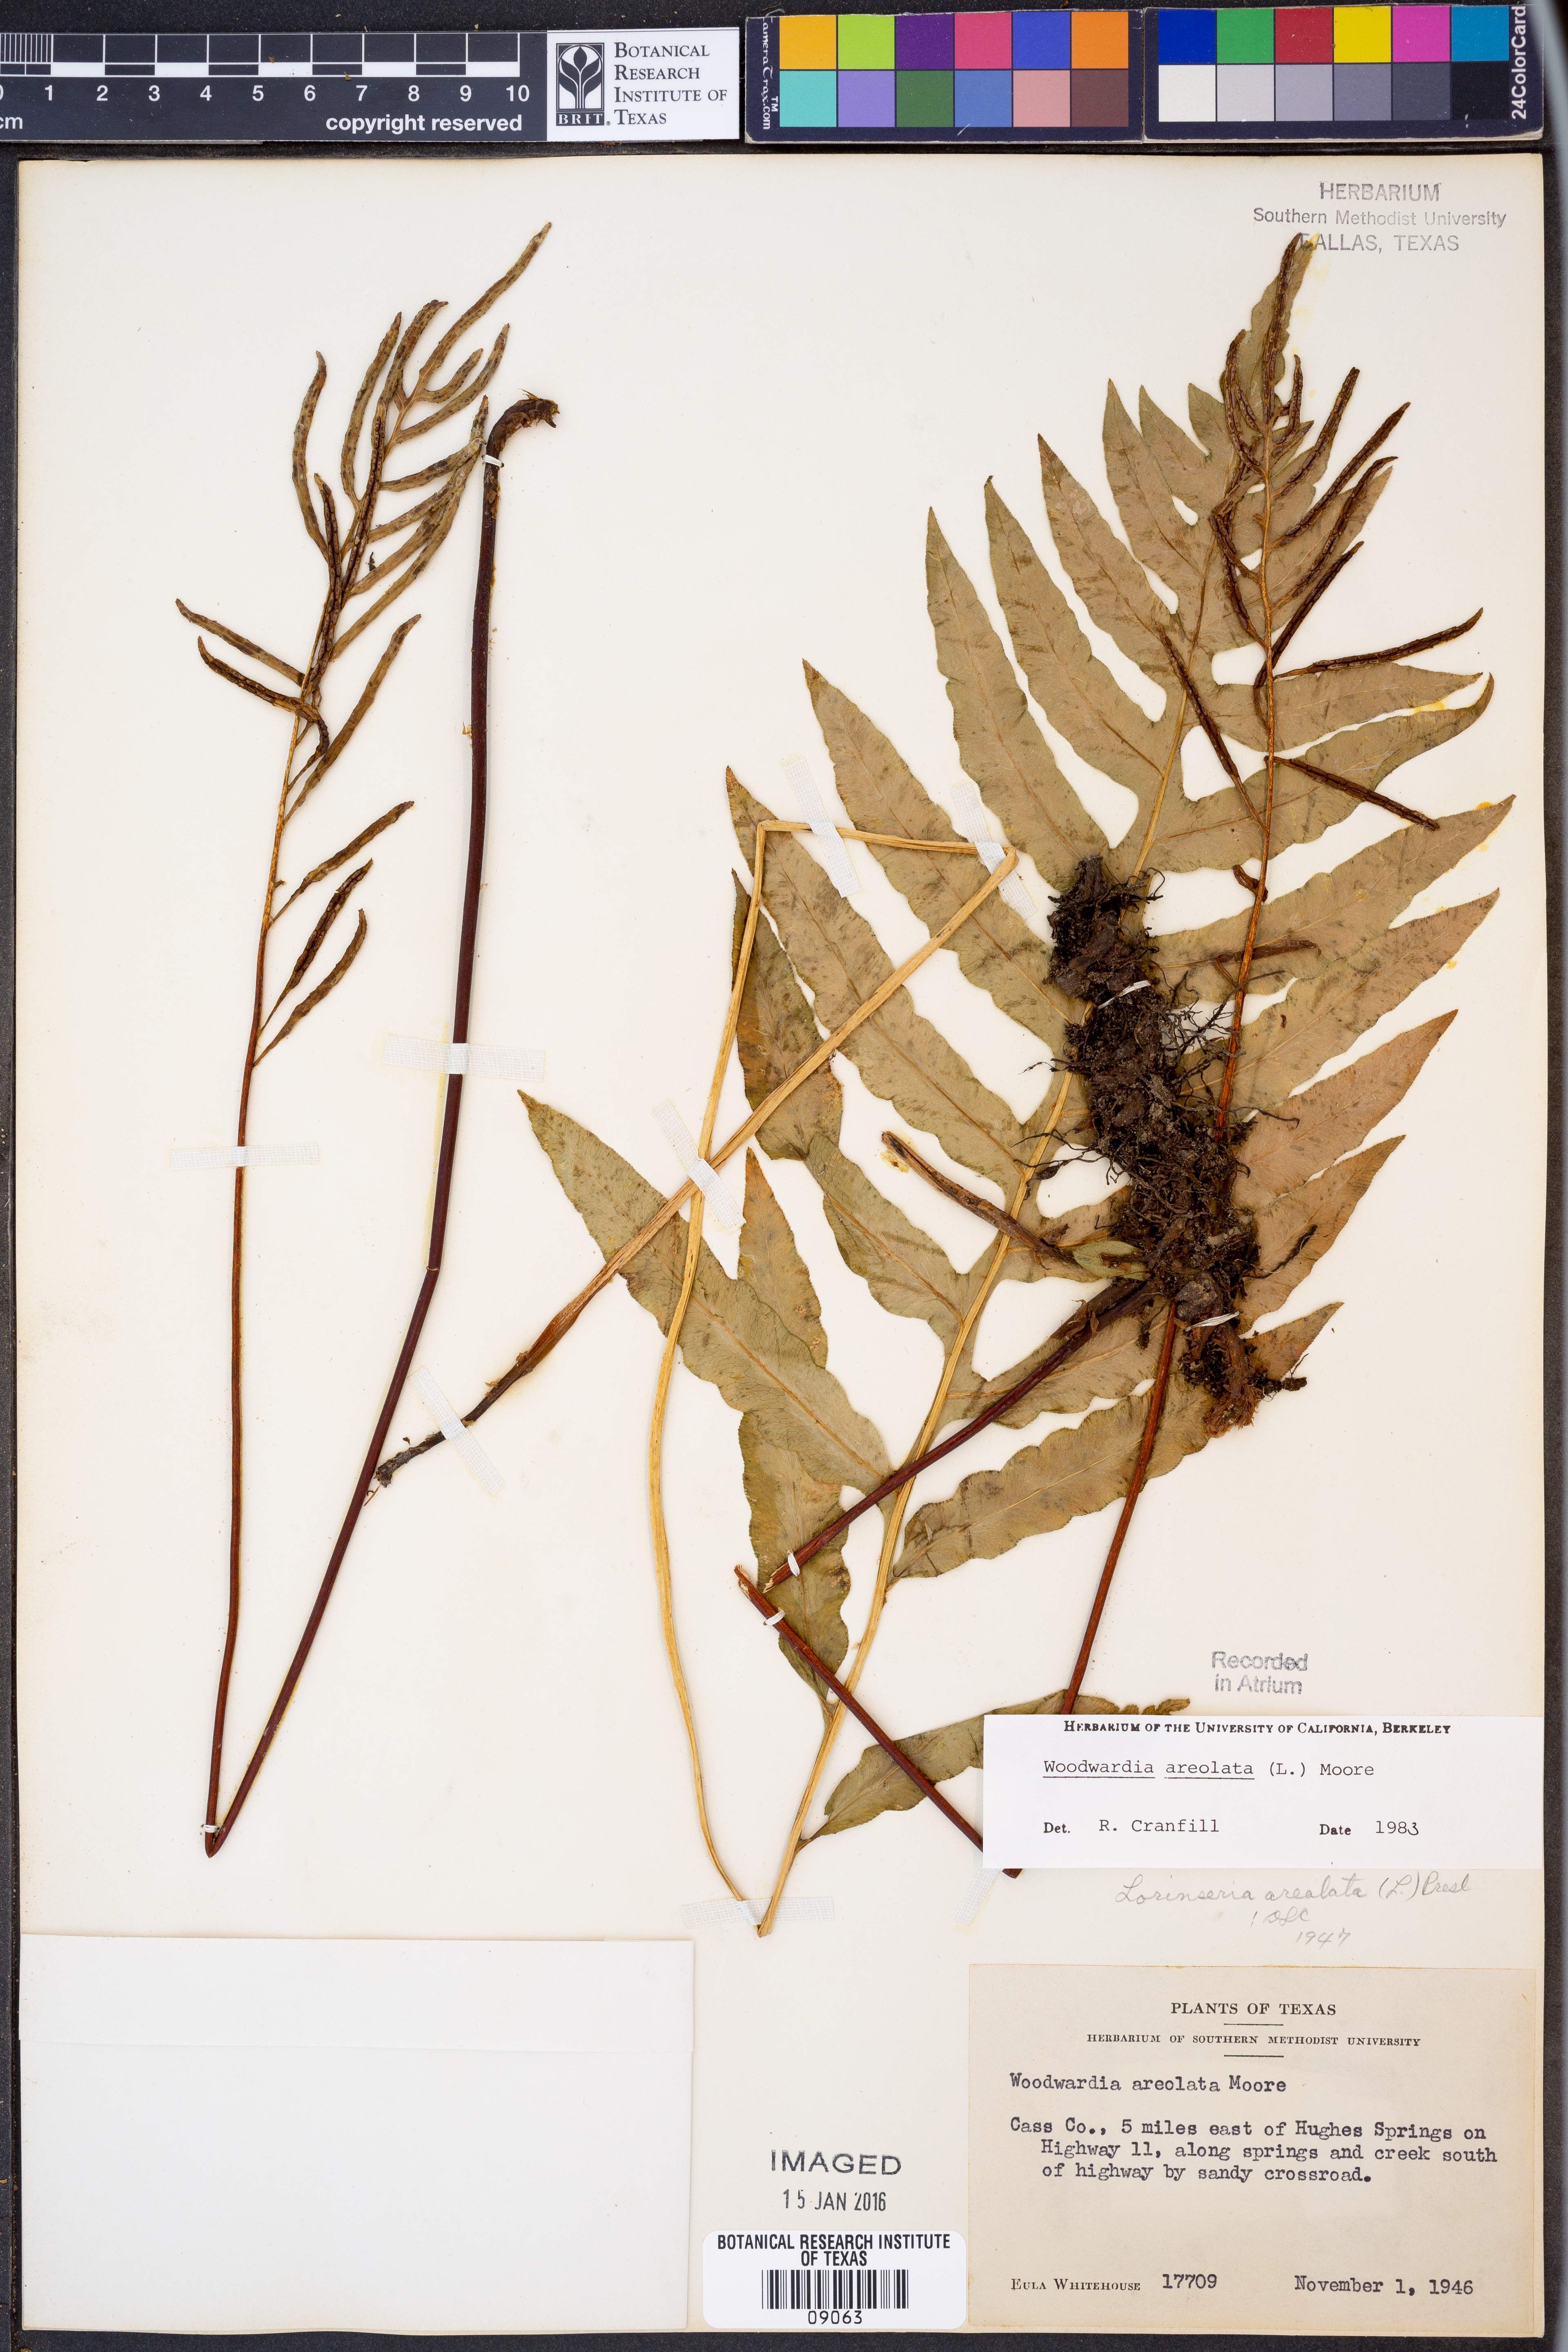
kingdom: Plantae
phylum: Tracheophyta
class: Polypodiopsida
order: Polypodiales
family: Blechnaceae
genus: Lorinseria
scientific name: Lorinseria areolata
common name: Dwarf chain fern
